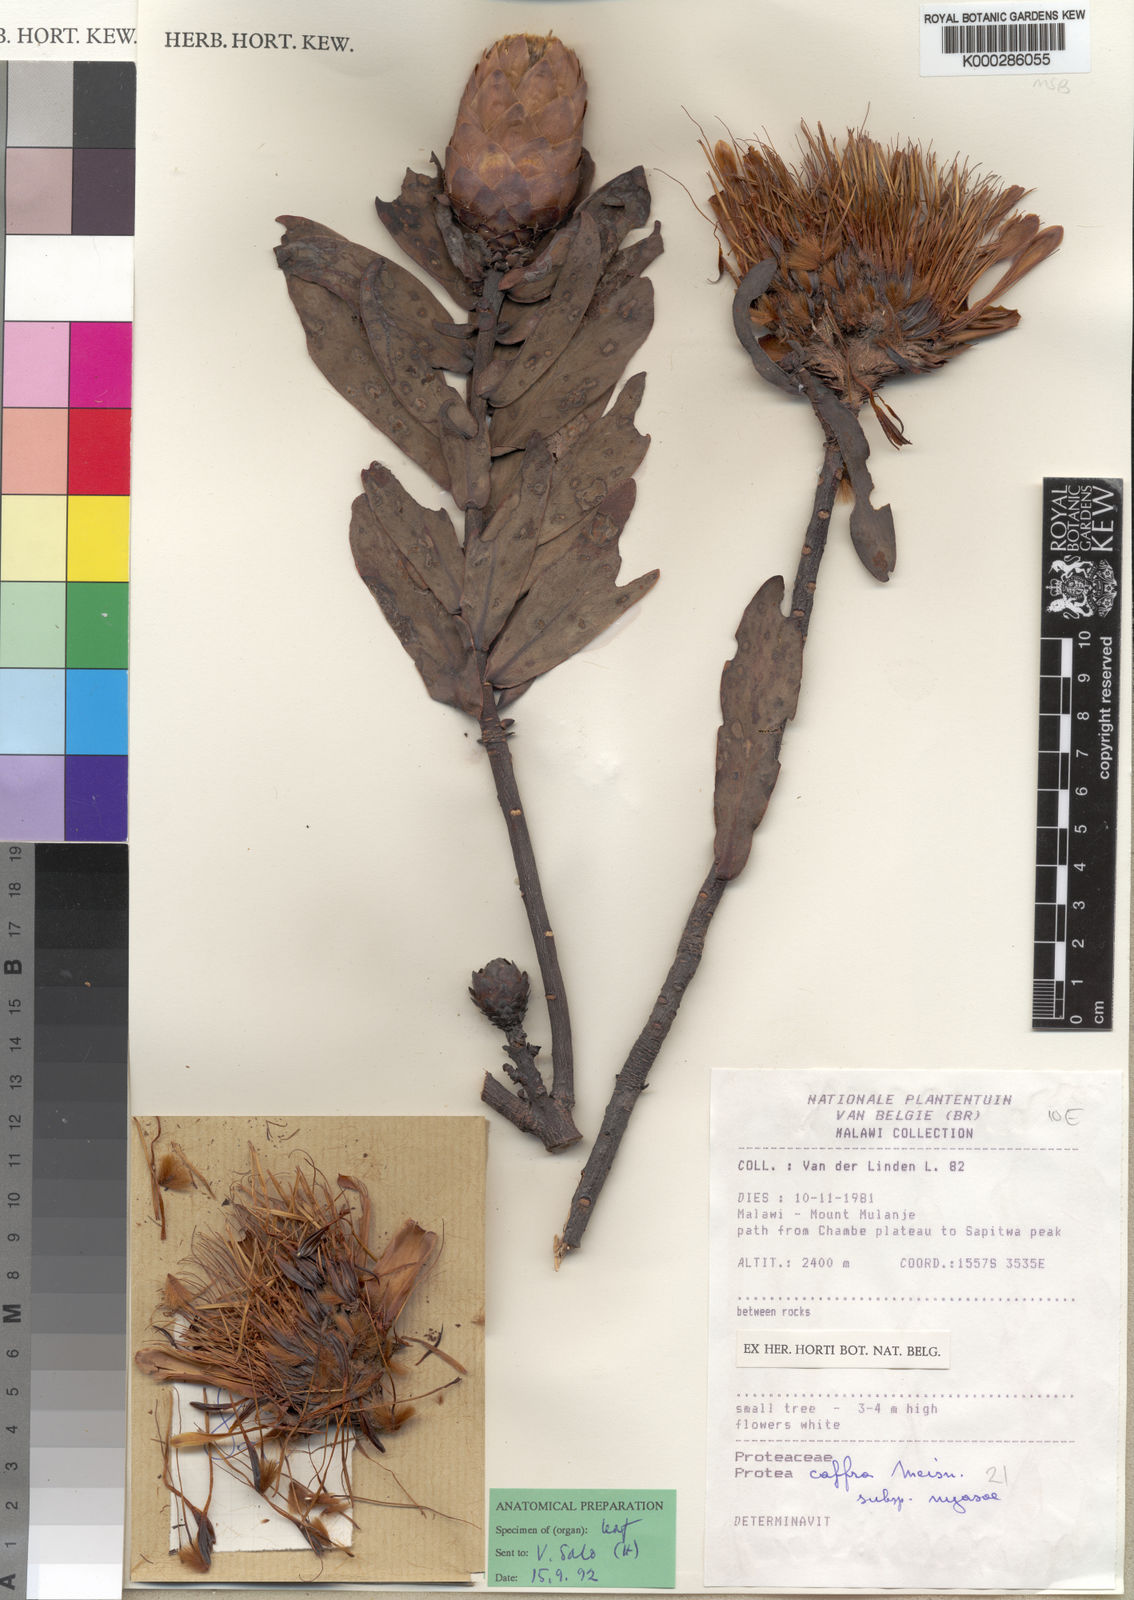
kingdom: Plantae
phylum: Tracheophyta
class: Magnoliopsida
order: Proteales
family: Proteaceae
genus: Protea
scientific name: Protea caffra
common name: Common sugarbush
